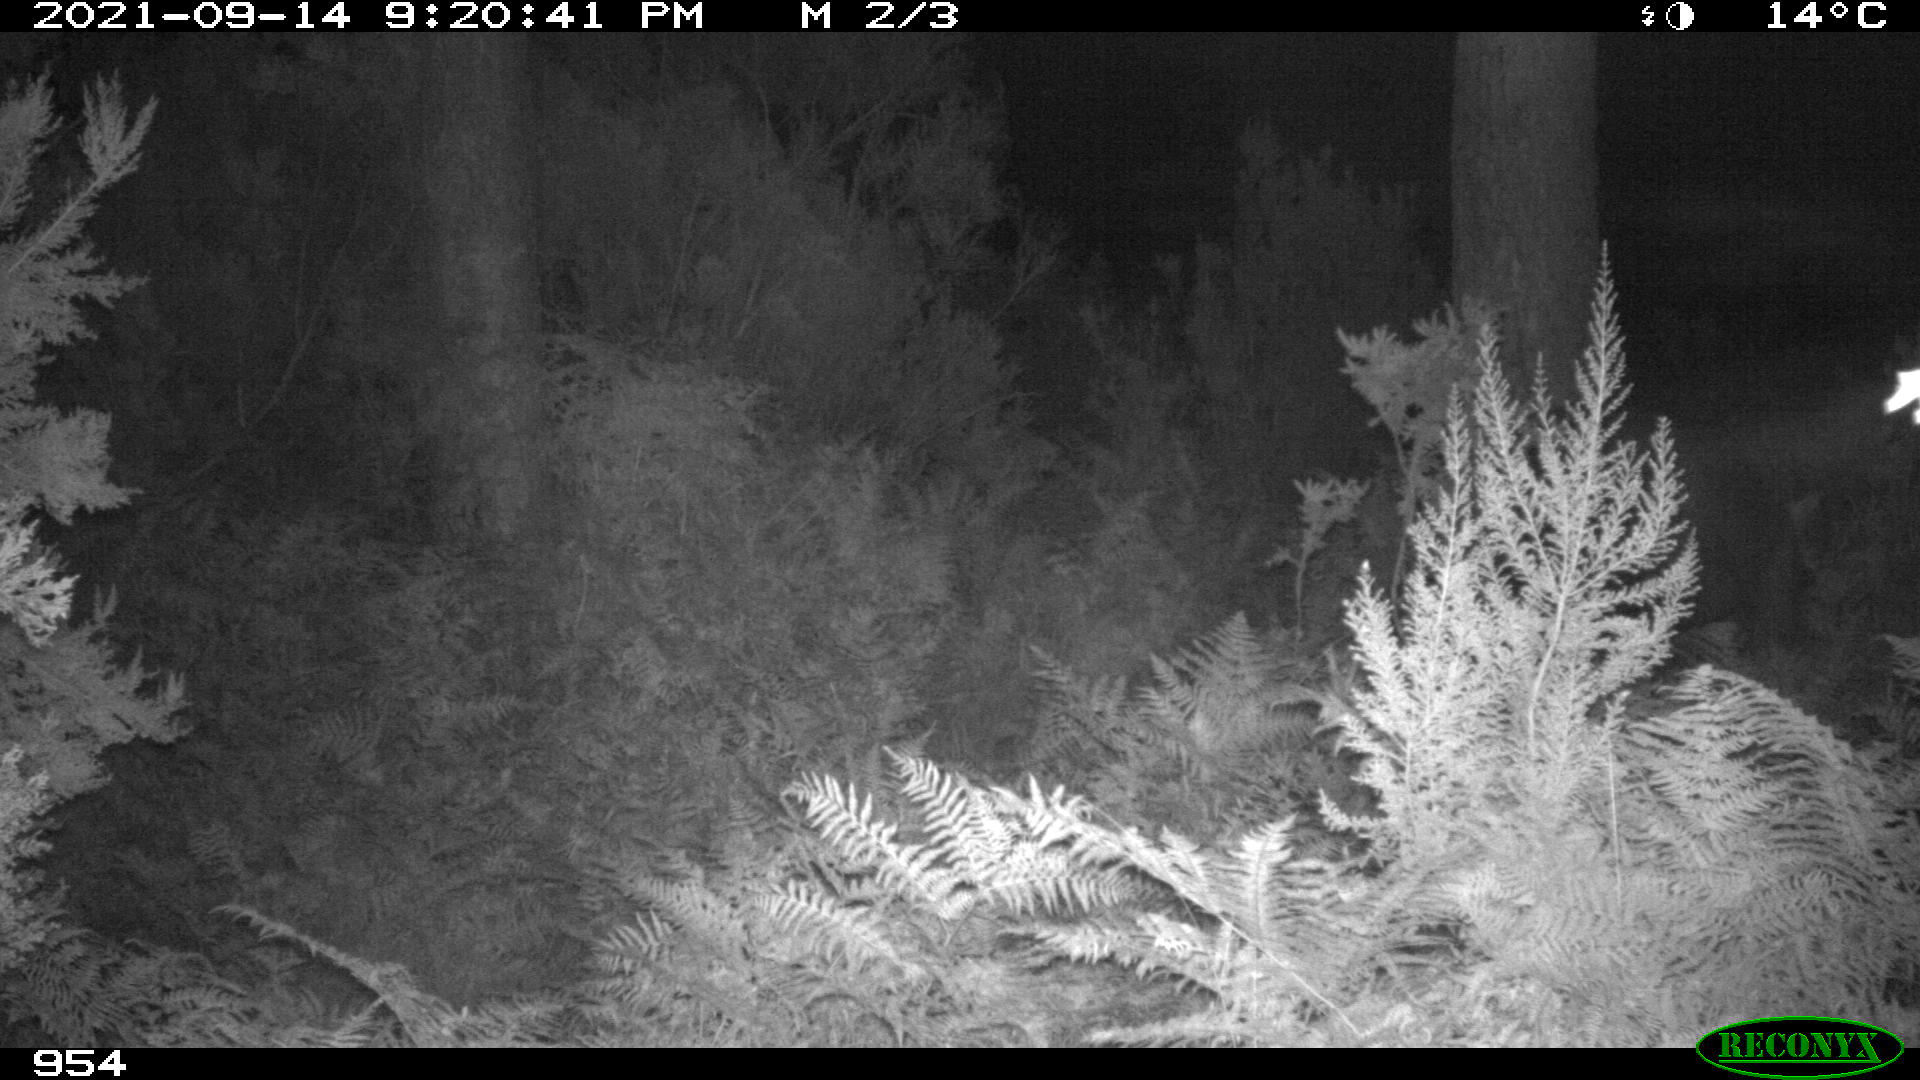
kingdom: Animalia
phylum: Chordata
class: Mammalia
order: Perissodactyla
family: Equidae
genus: Equus
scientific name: Equus caballus
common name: Horse
